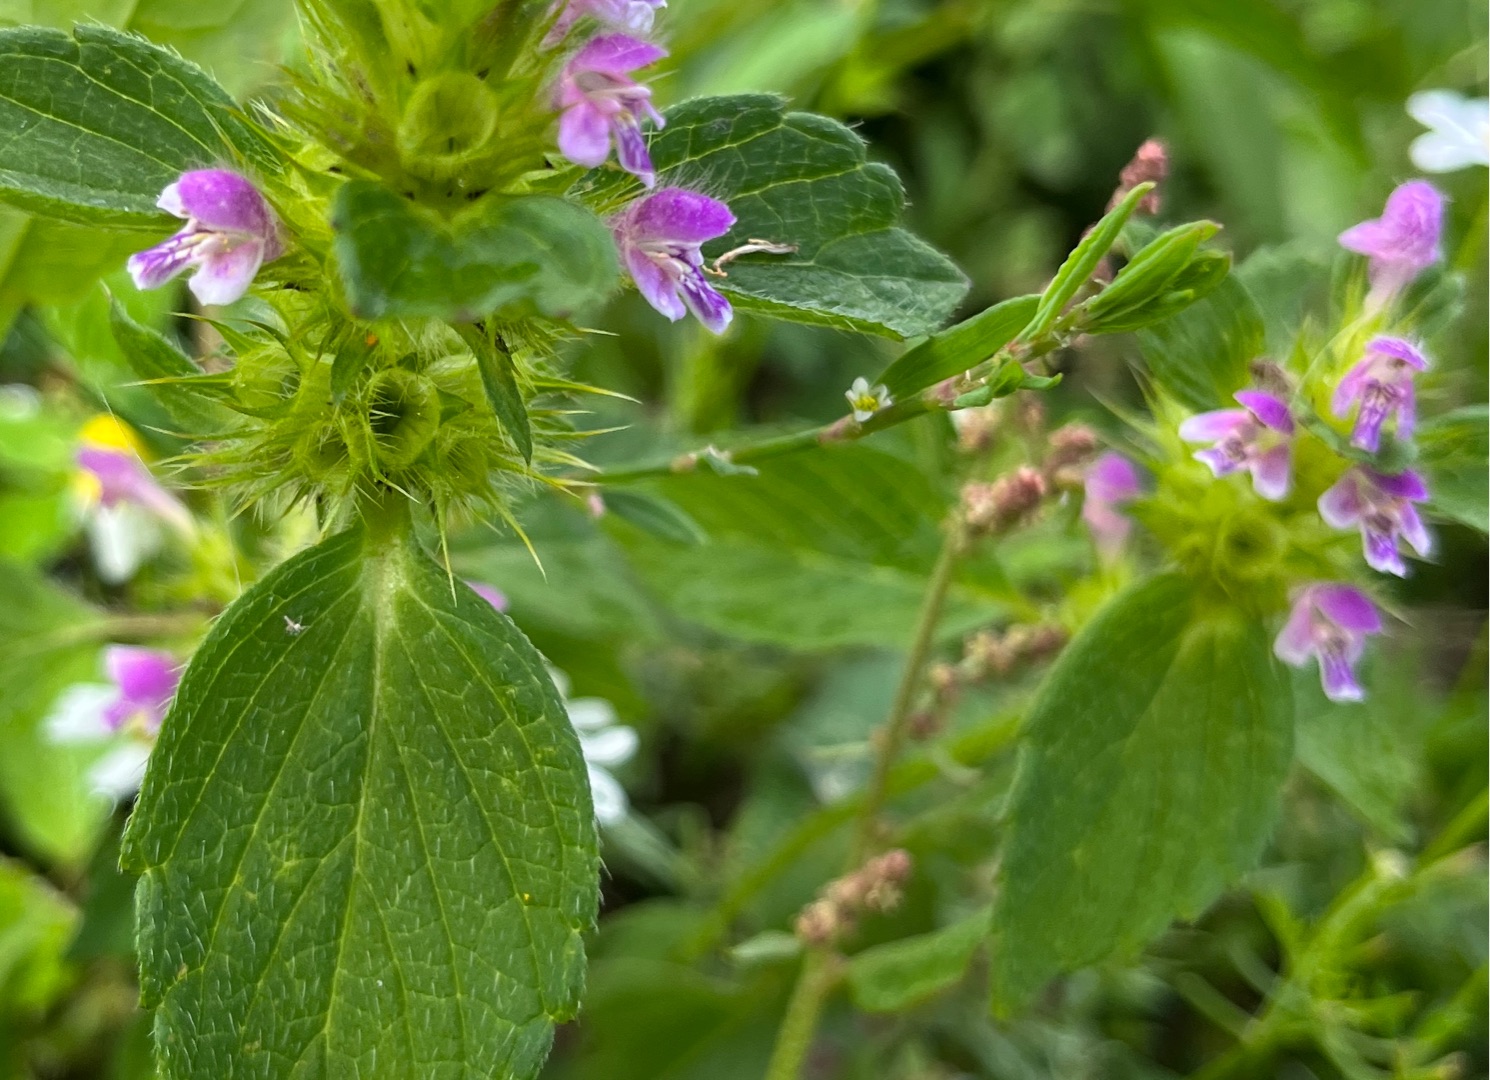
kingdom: Plantae
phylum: Tracheophyta
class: Magnoliopsida
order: Lamiales
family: Lamiaceae
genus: Galeopsis
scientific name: Galeopsis bifida
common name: Skov-hanekro
